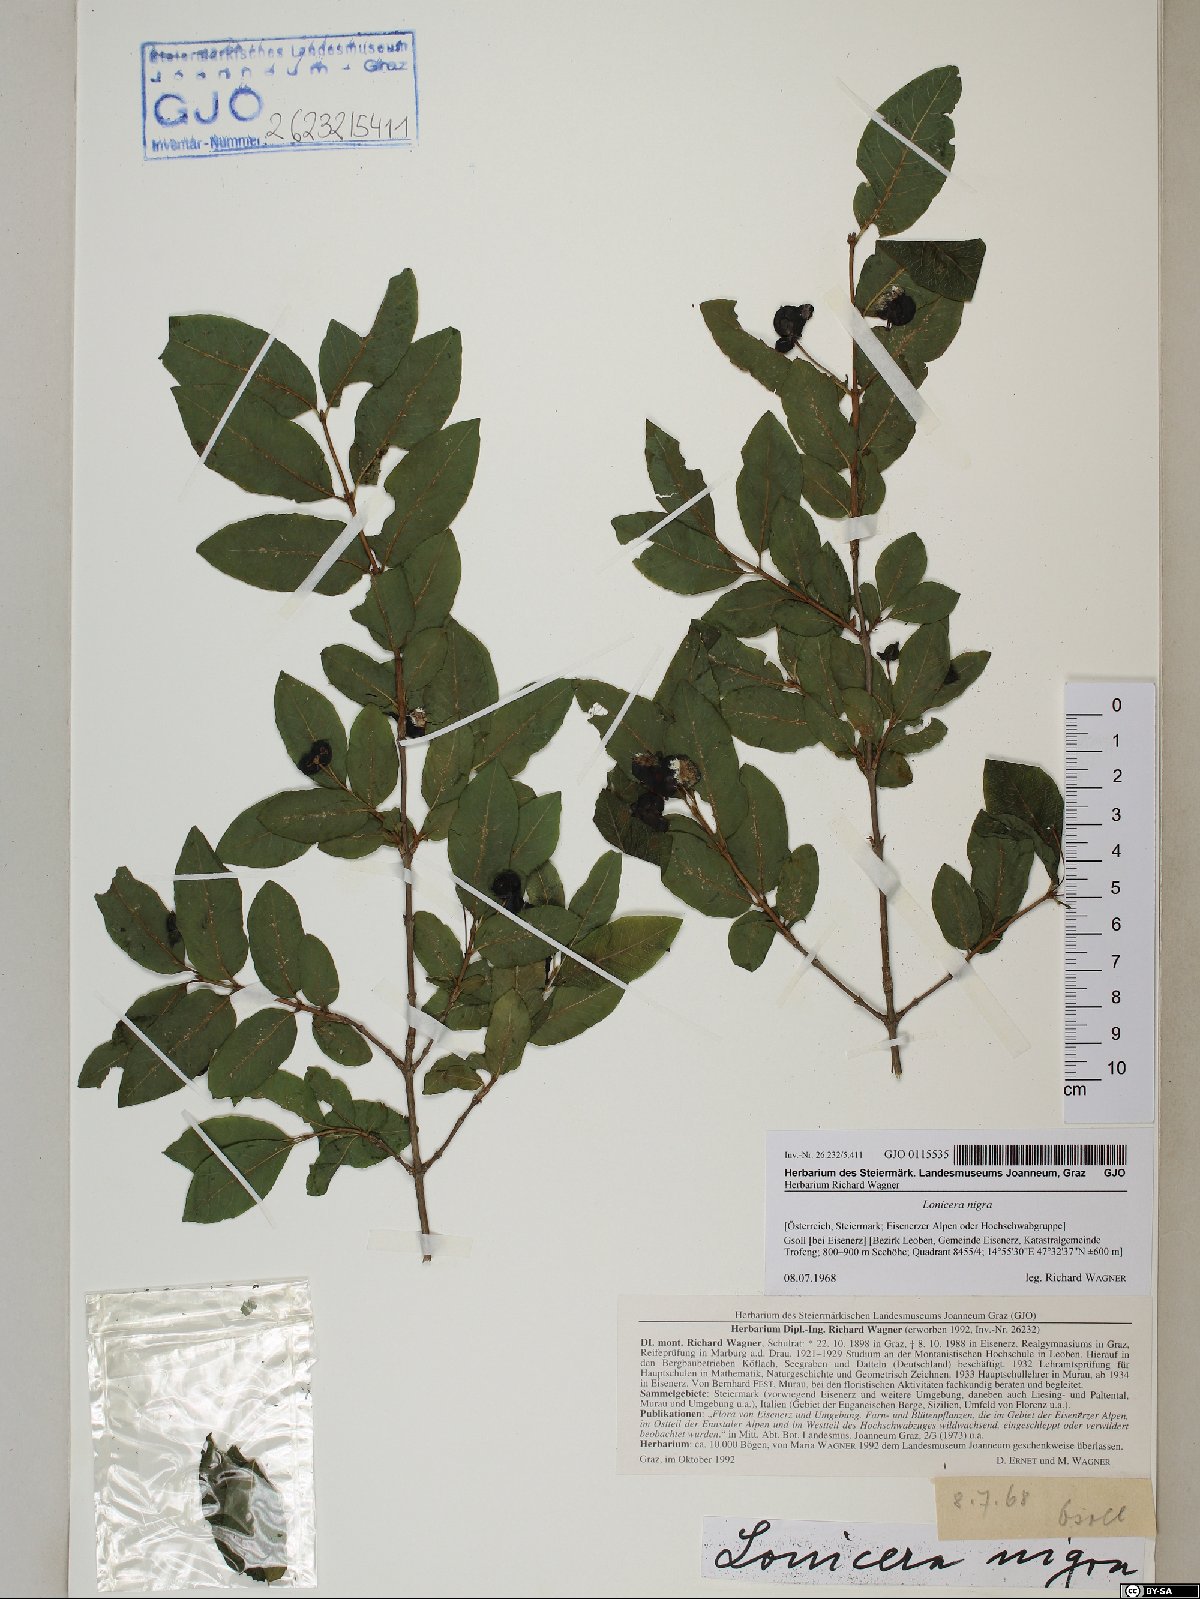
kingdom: Plantae
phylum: Tracheophyta
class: Magnoliopsida
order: Dipsacales
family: Caprifoliaceae
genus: Lonicera
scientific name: Lonicera nigra
